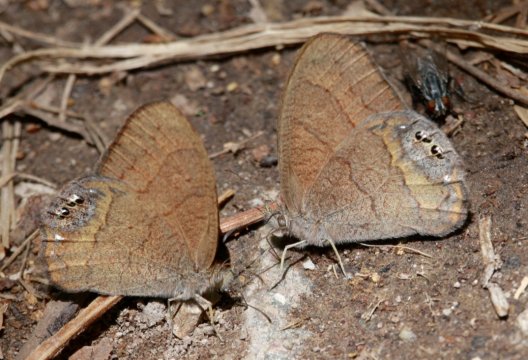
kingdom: Animalia
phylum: Arthropoda
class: Insecta
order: Lepidoptera
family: Nymphalidae
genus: Euptychia
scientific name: Euptychia pyracmon
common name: Nabokov's Satyr
